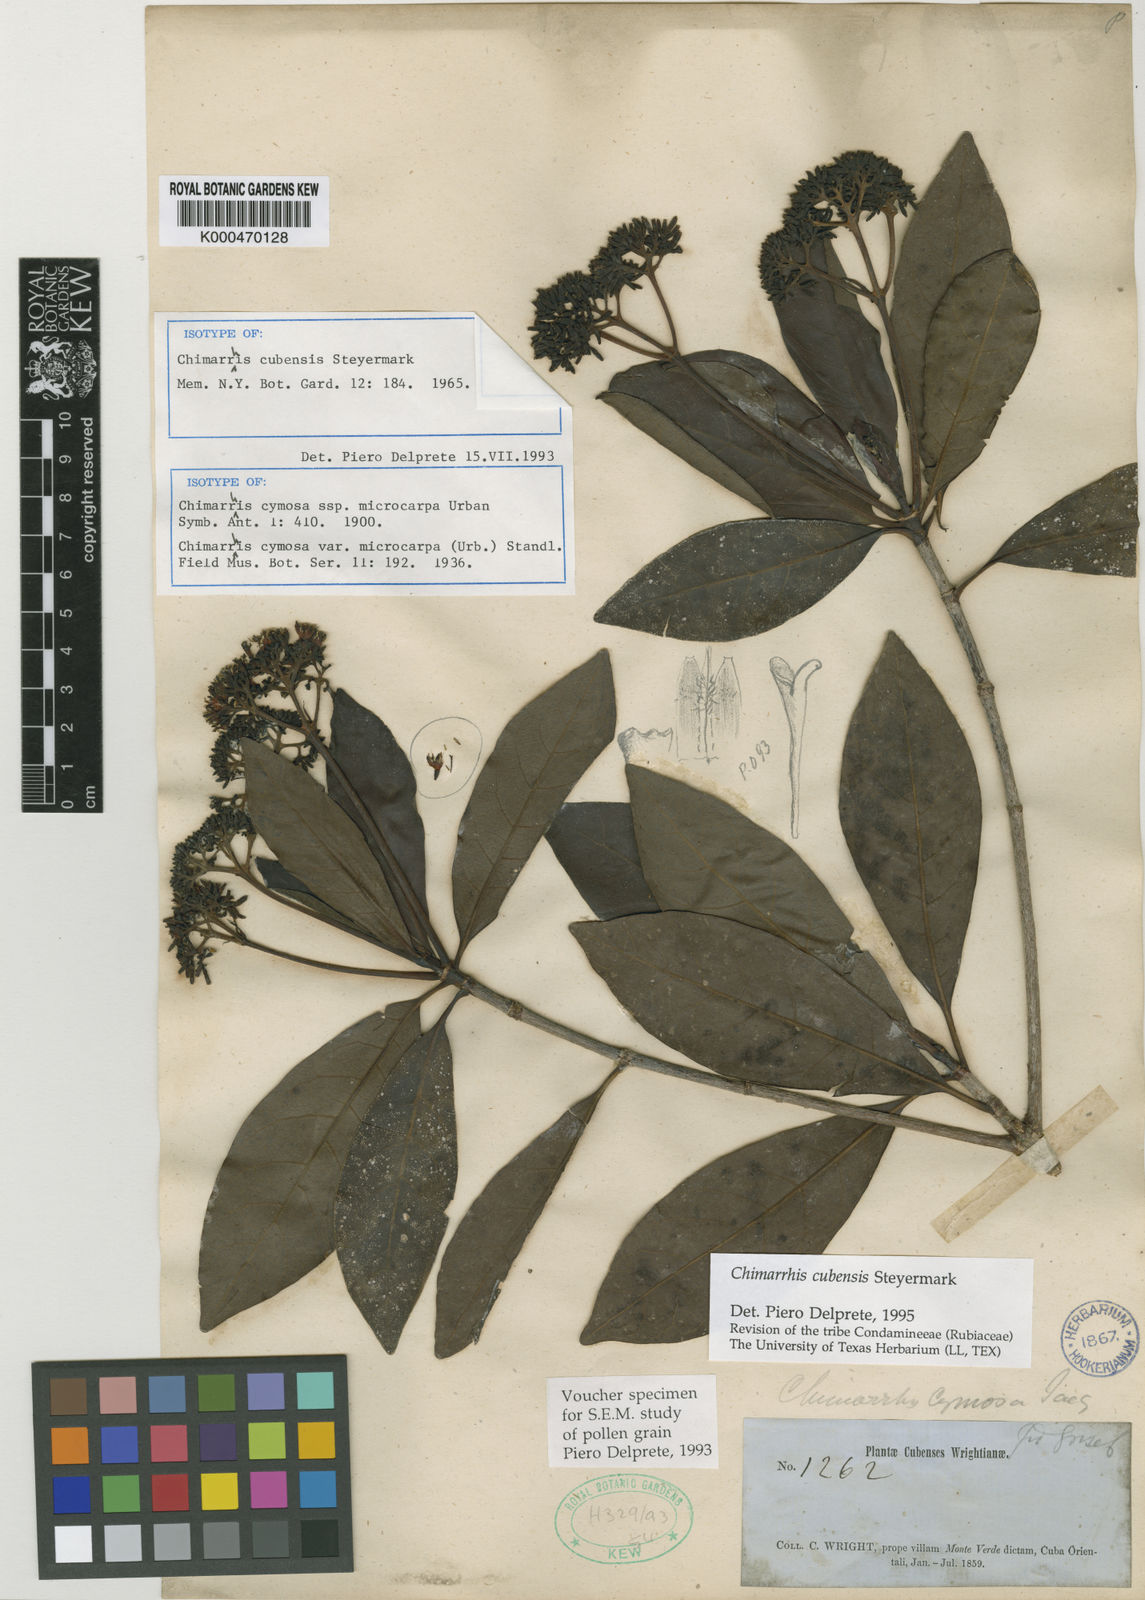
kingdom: Plantae
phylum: Tracheophyta
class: Magnoliopsida
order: Gentianales
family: Rubiaceae
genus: Chimarrhis
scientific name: Chimarrhis cubensis
